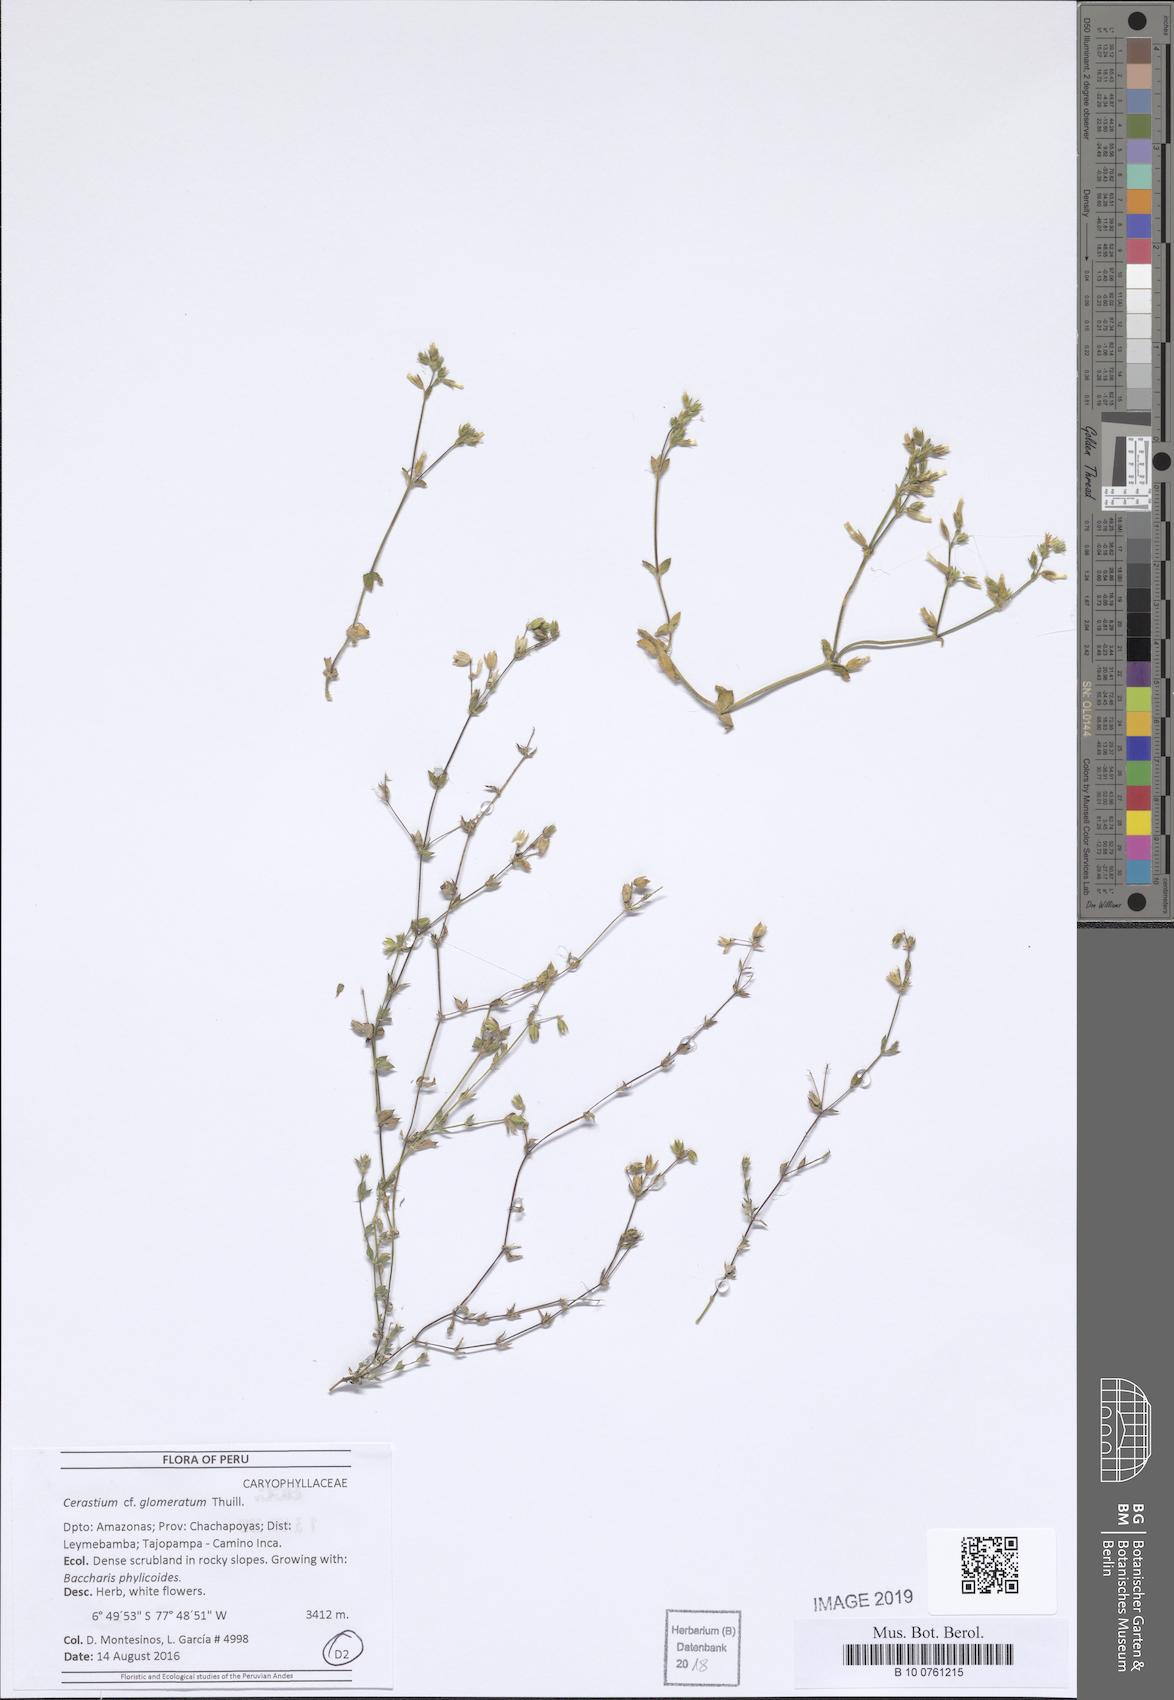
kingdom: Plantae
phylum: Tracheophyta
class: Magnoliopsida
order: Caryophyllales
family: Caryophyllaceae
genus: Cerastium
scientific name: Cerastium glomeratum
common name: Sticky chickweed
